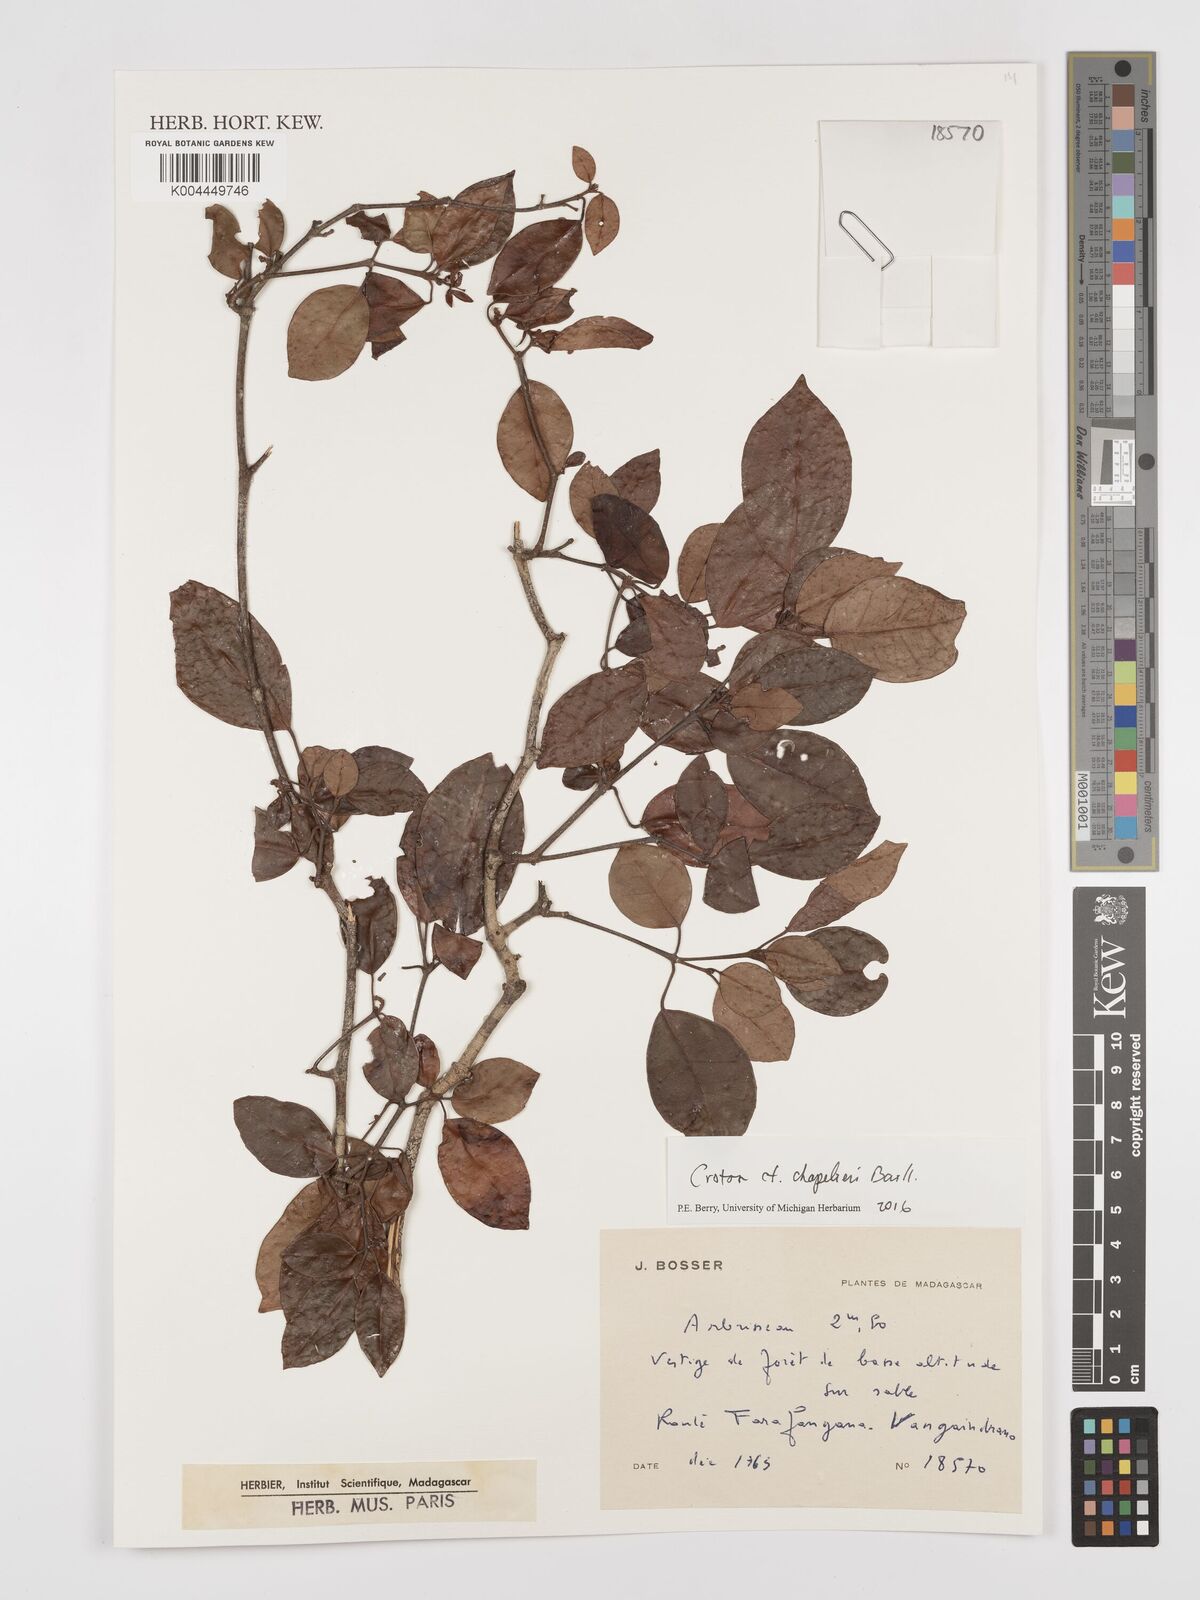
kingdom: Plantae
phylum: Tracheophyta
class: Magnoliopsida
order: Malpighiales
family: Euphorbiaceae
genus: Croton
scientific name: Croton chapelieri
